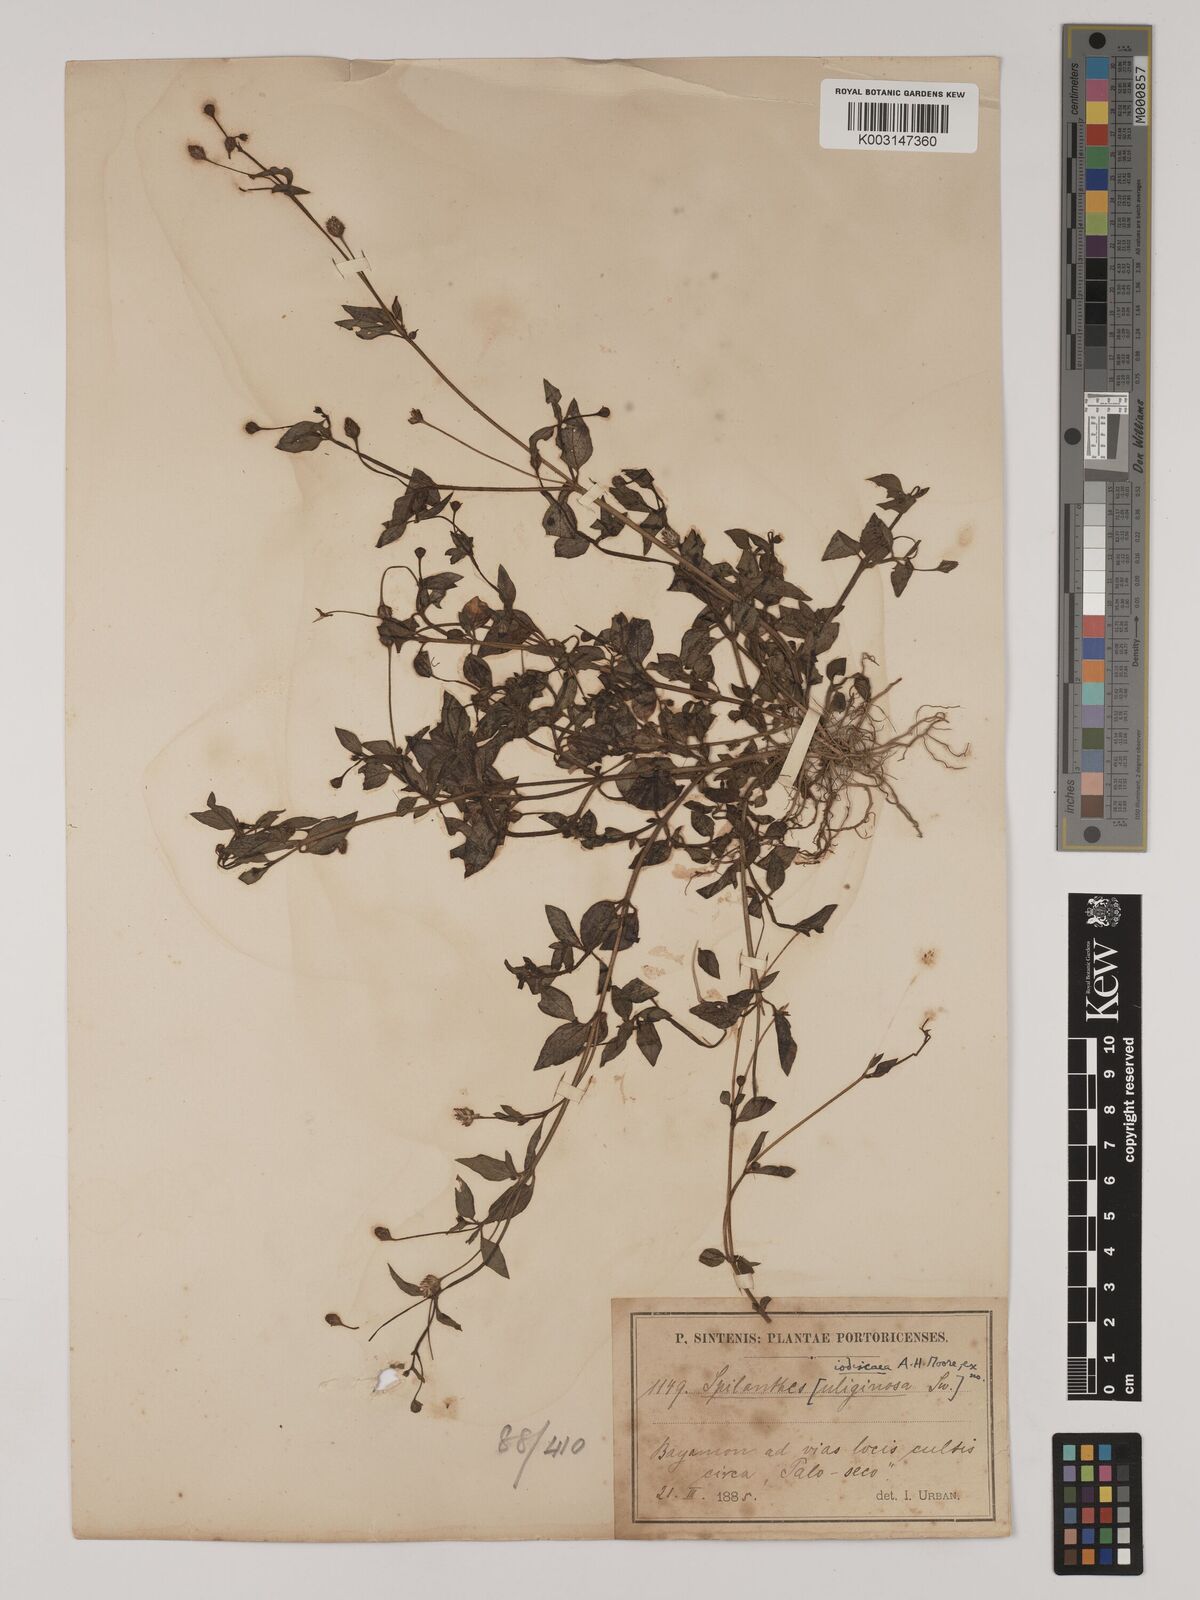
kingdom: Plantae
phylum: Tracheophyta
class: Magnoliopsida
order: Asterales
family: Asteraceae
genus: Acmella
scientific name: Acmella uliginosa
